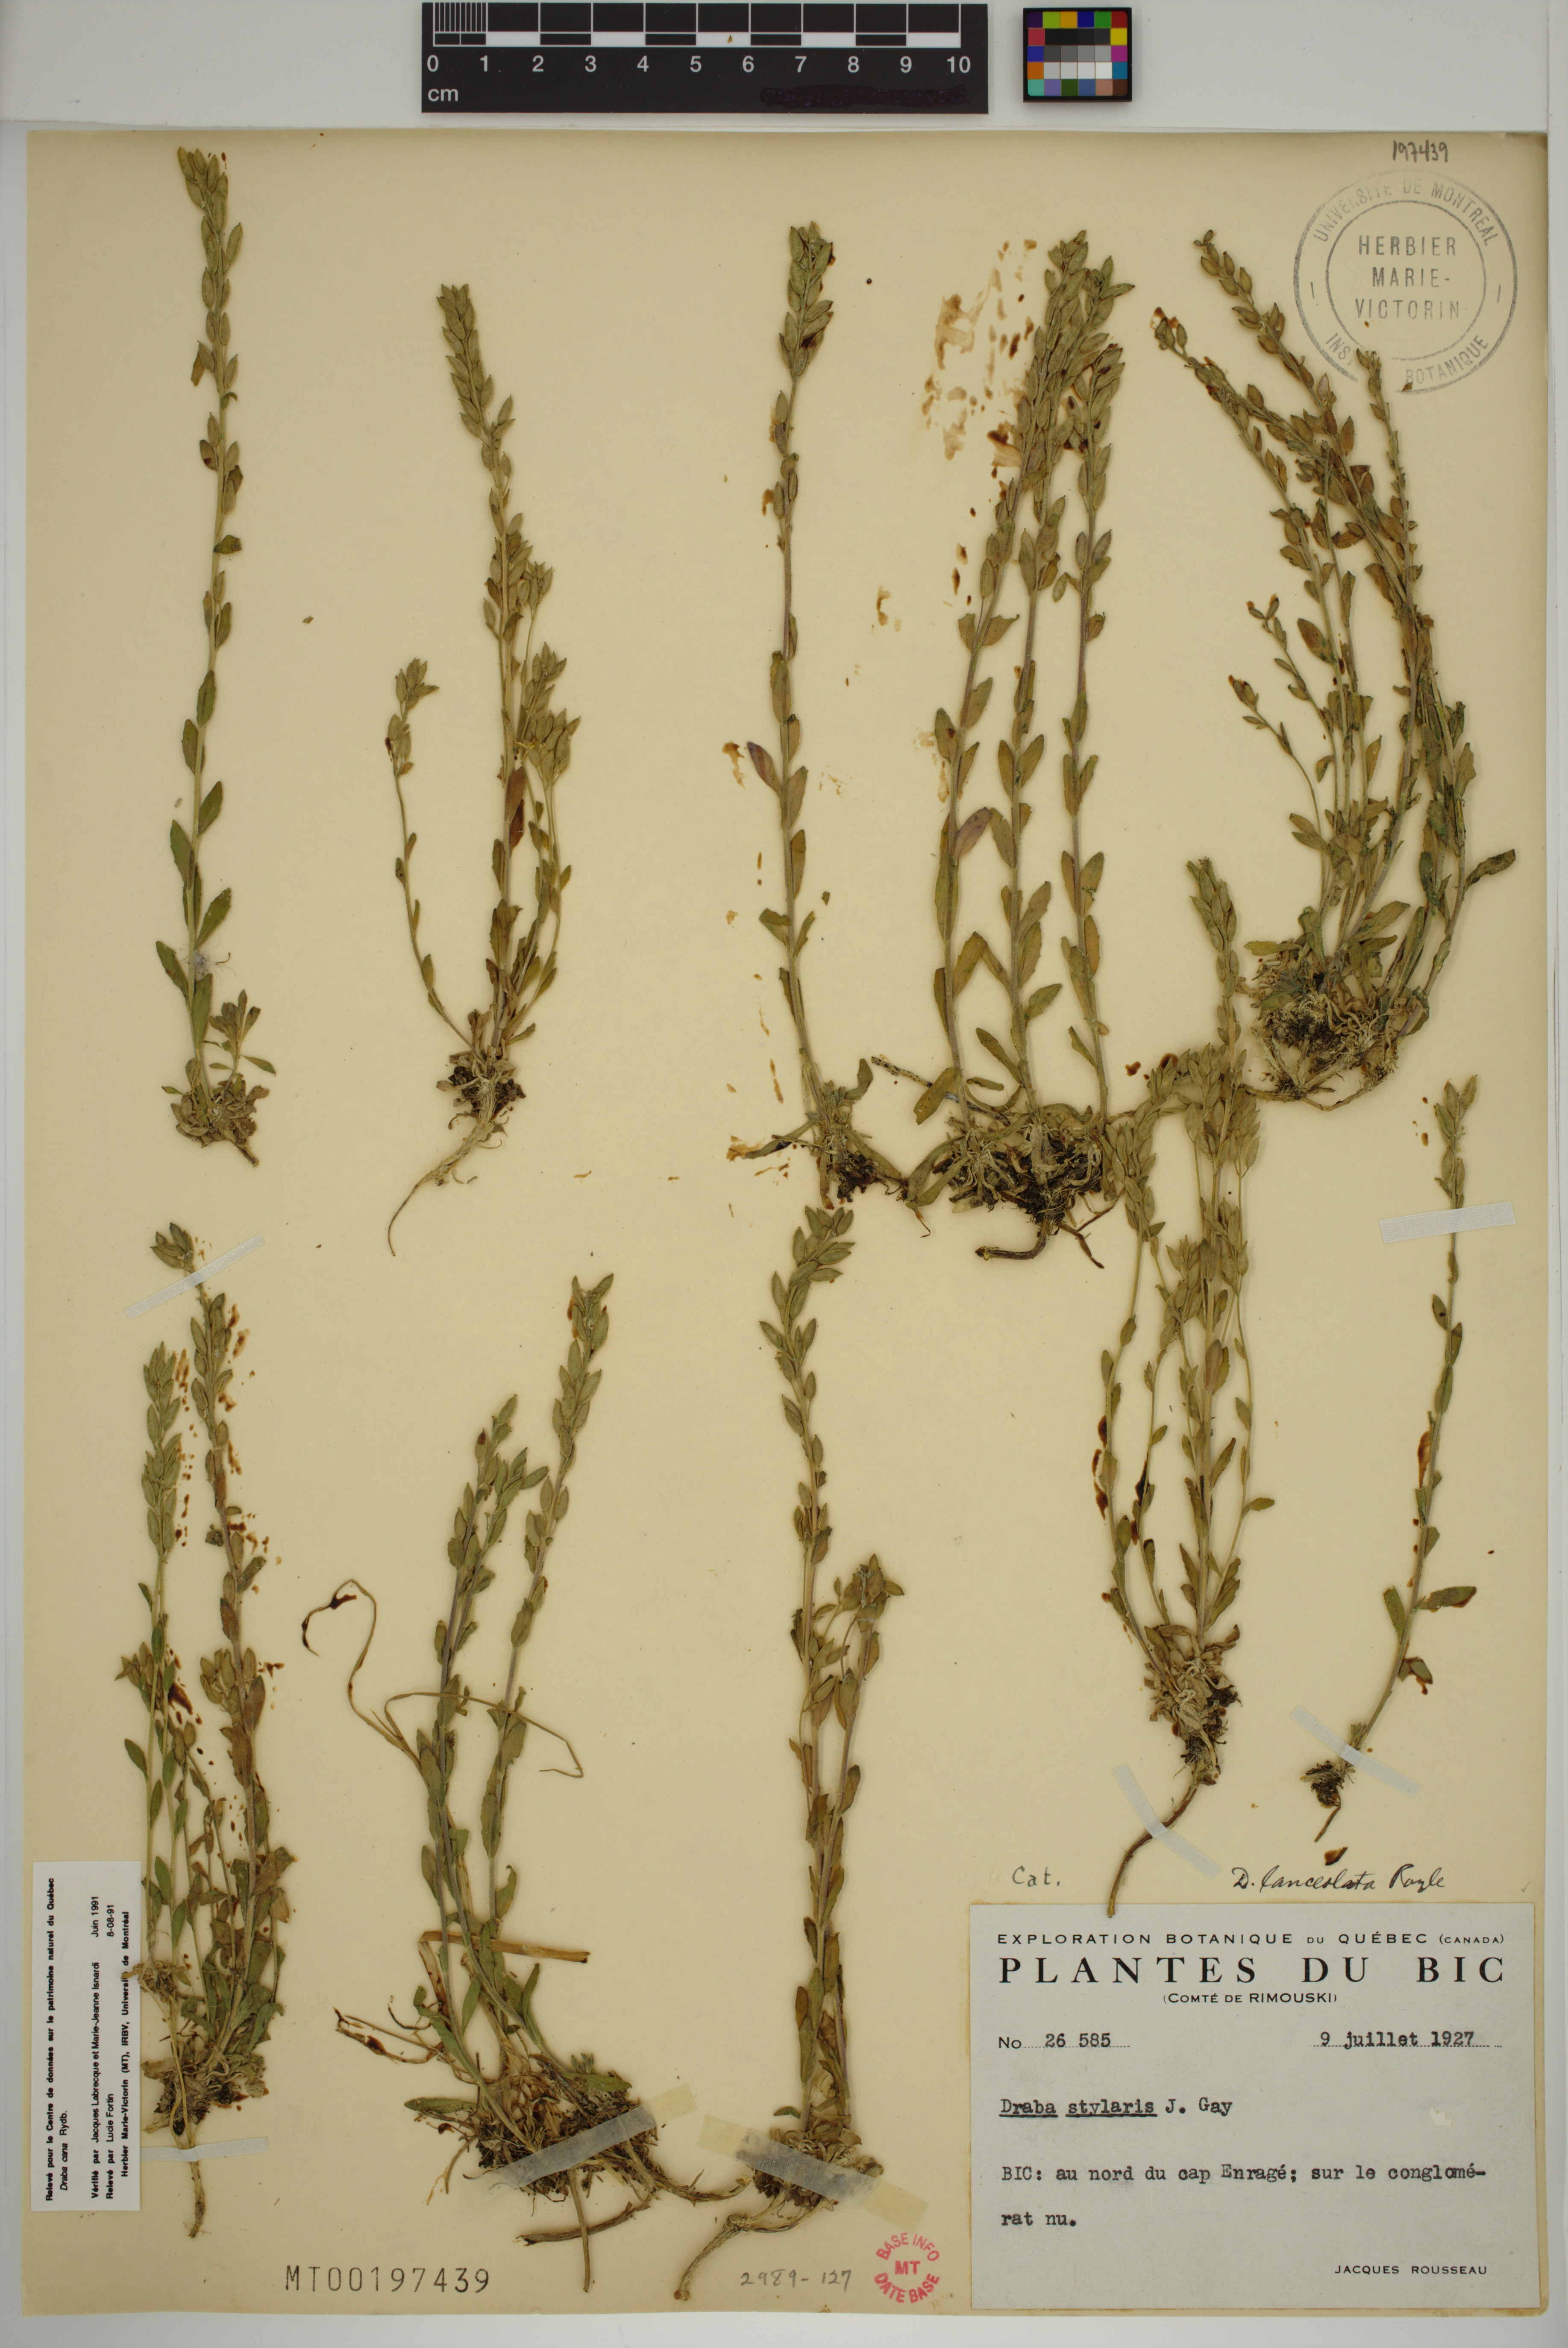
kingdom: Plantae
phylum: Tracheophyta
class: Magnoliopsida
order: Brassicales
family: Brassicaceae
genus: Draba
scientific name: Draba cana
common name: Hoary draba
